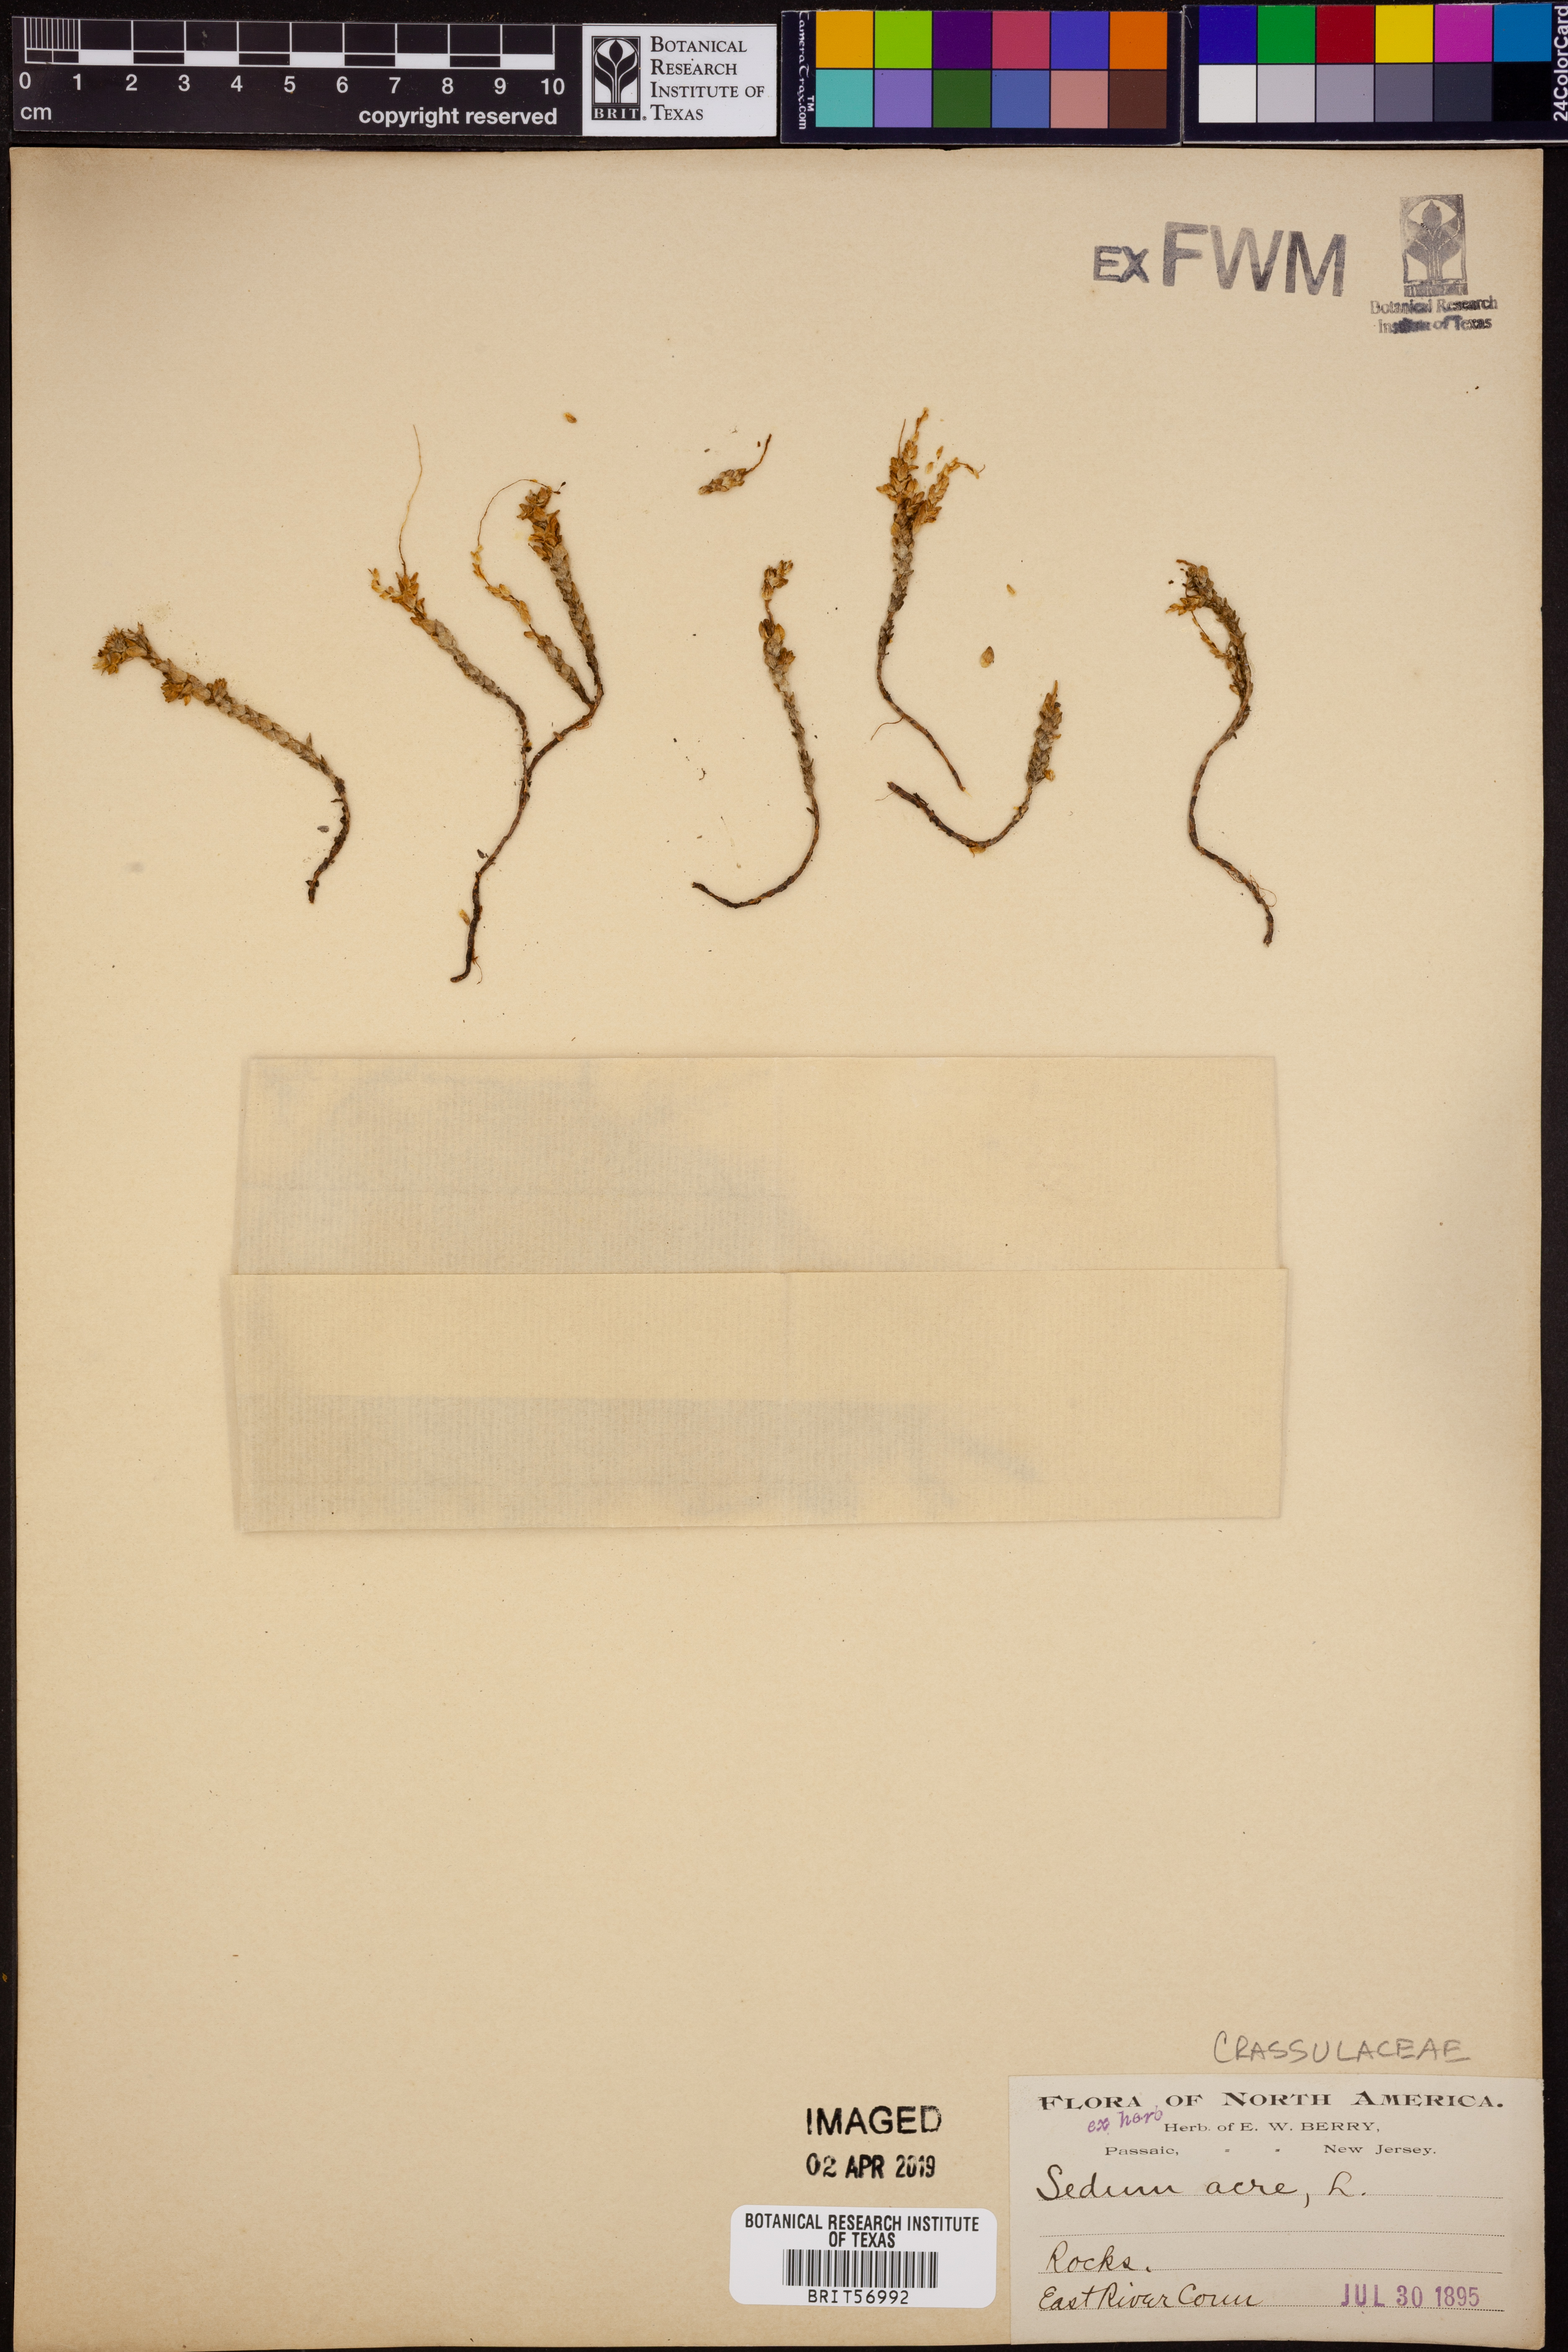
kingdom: Plantae
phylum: Tracheophyta
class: Magnoliopsida
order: Saxifragales
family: Crassulaceae
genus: Sedum
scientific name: Sedum acre
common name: Biting stonecrop
